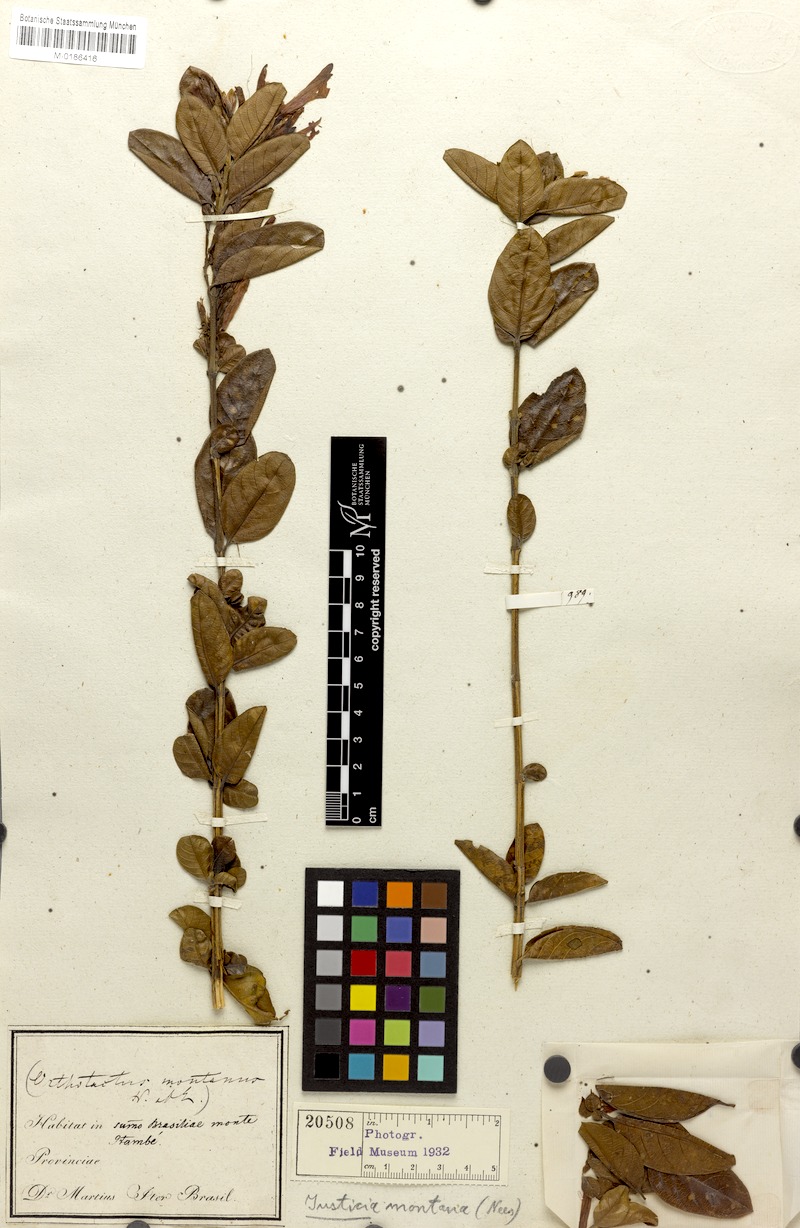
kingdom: Plantae
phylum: Tracheophyta
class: Magnoliopsida
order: Lamiales
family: Acanthaceae
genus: Justicia
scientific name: Justicia santapaui
